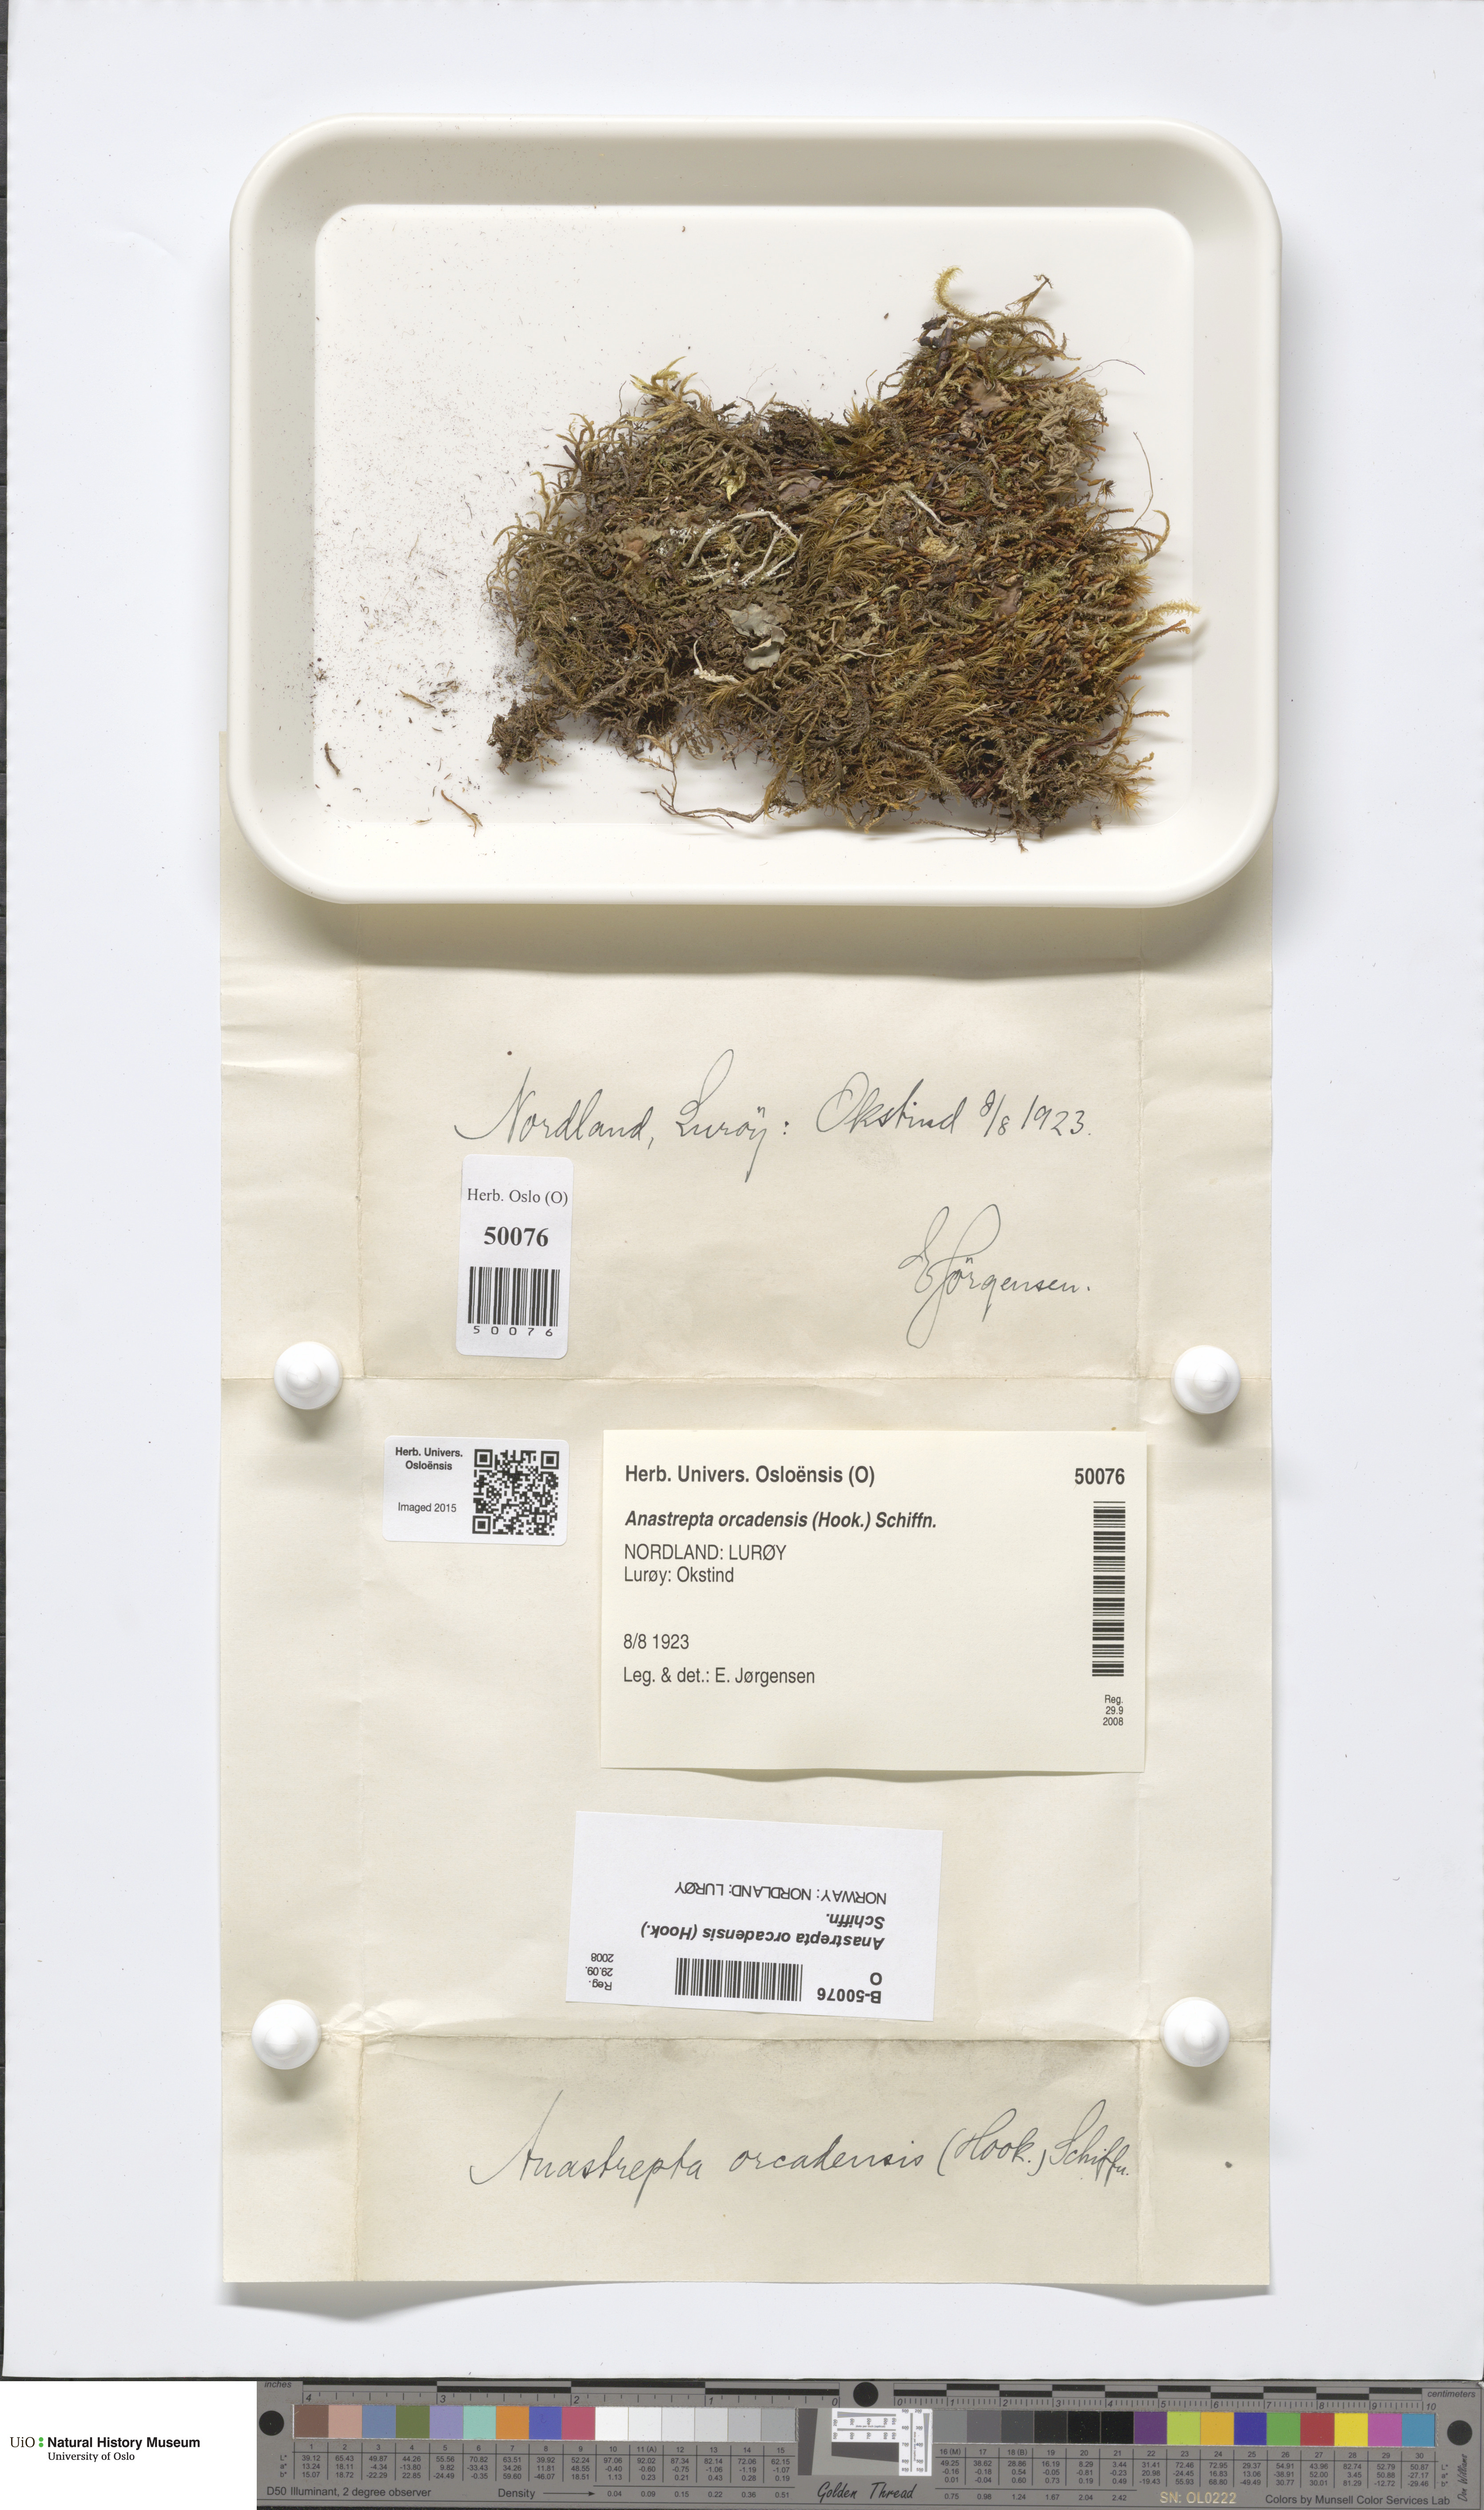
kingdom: Plantae
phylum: Marchantiophyta
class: Jungermanniopsida
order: Jungermanniales
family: Anastrophyllaceae
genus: Anastrepta
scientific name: Anastrepta orcadensis
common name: Orkney notchwort
